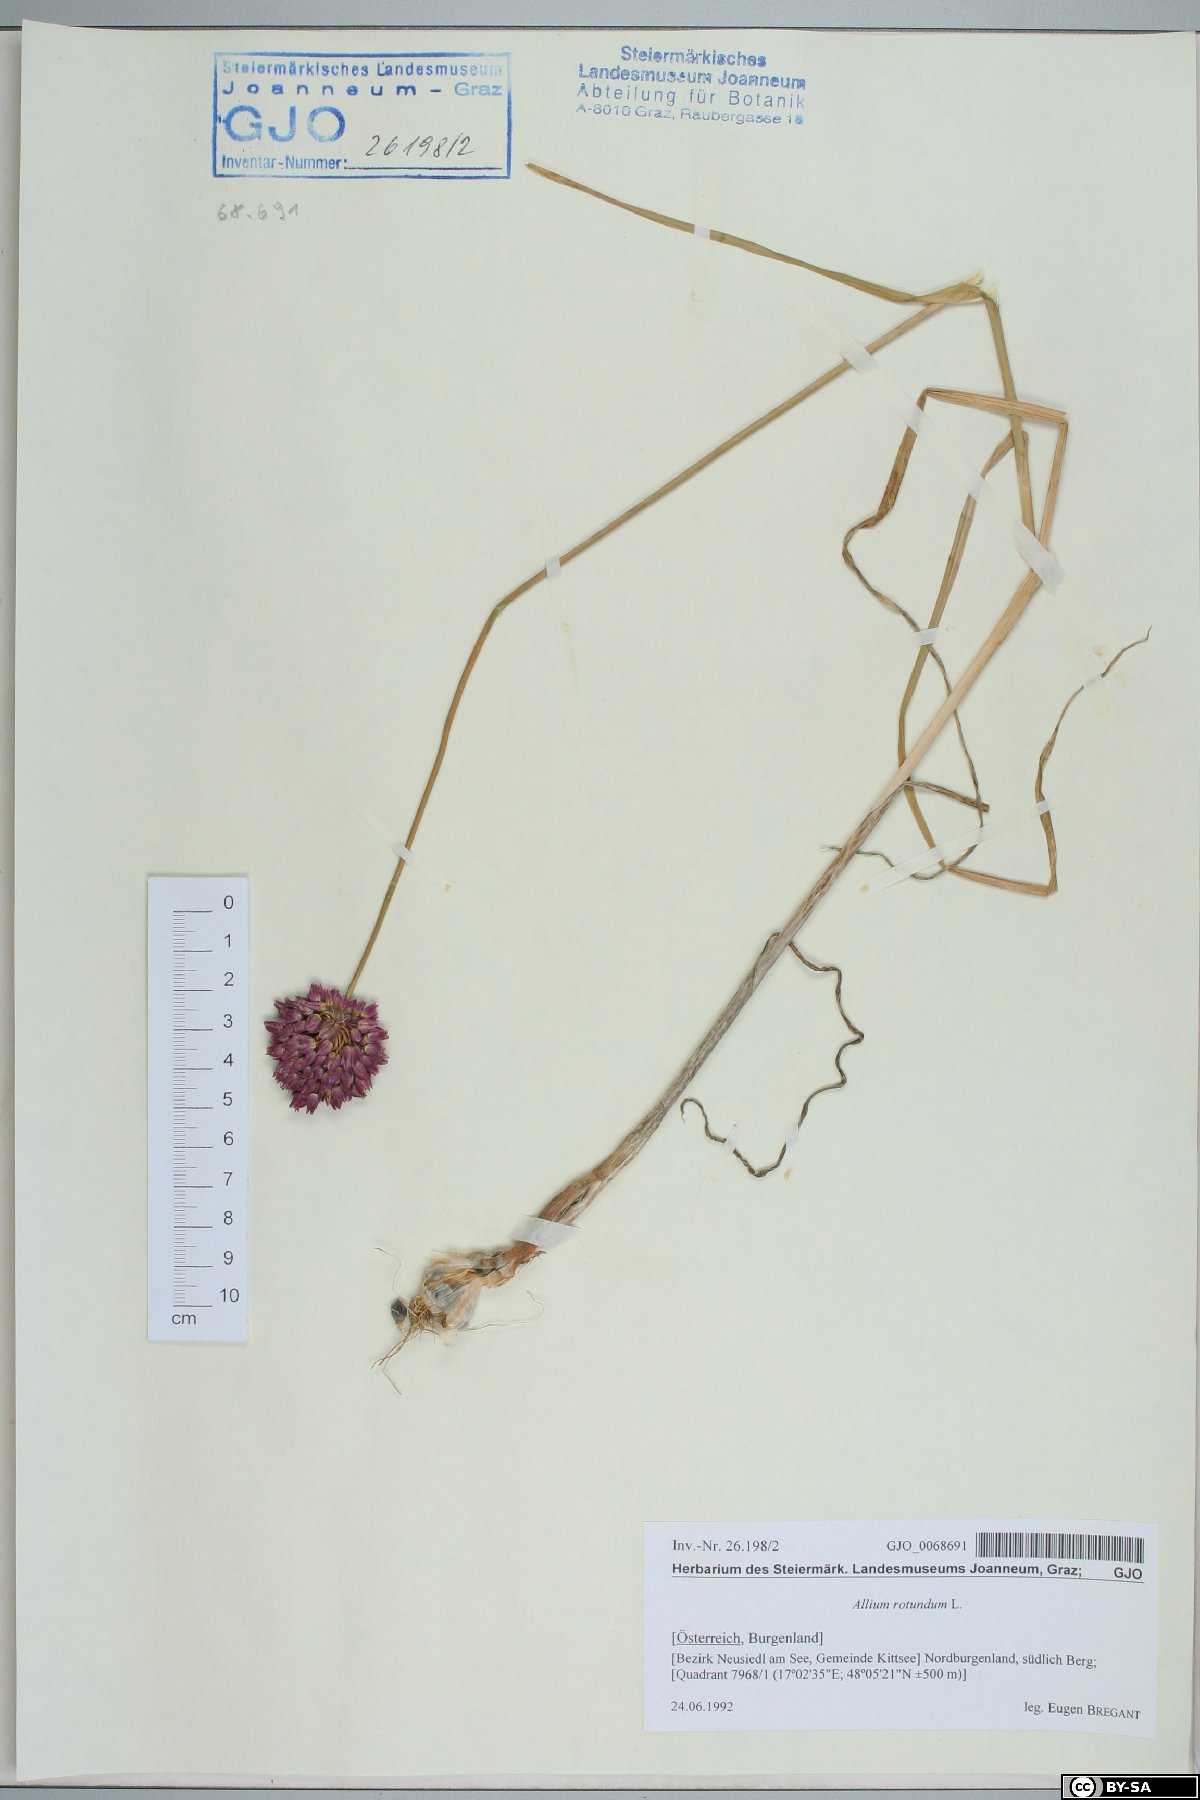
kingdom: Plantae
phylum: Tracheophyta
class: Liliopsida
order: Asparagales
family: Amaryllidaceae
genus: Allium
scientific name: Allium rotundum
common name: Sand leek
